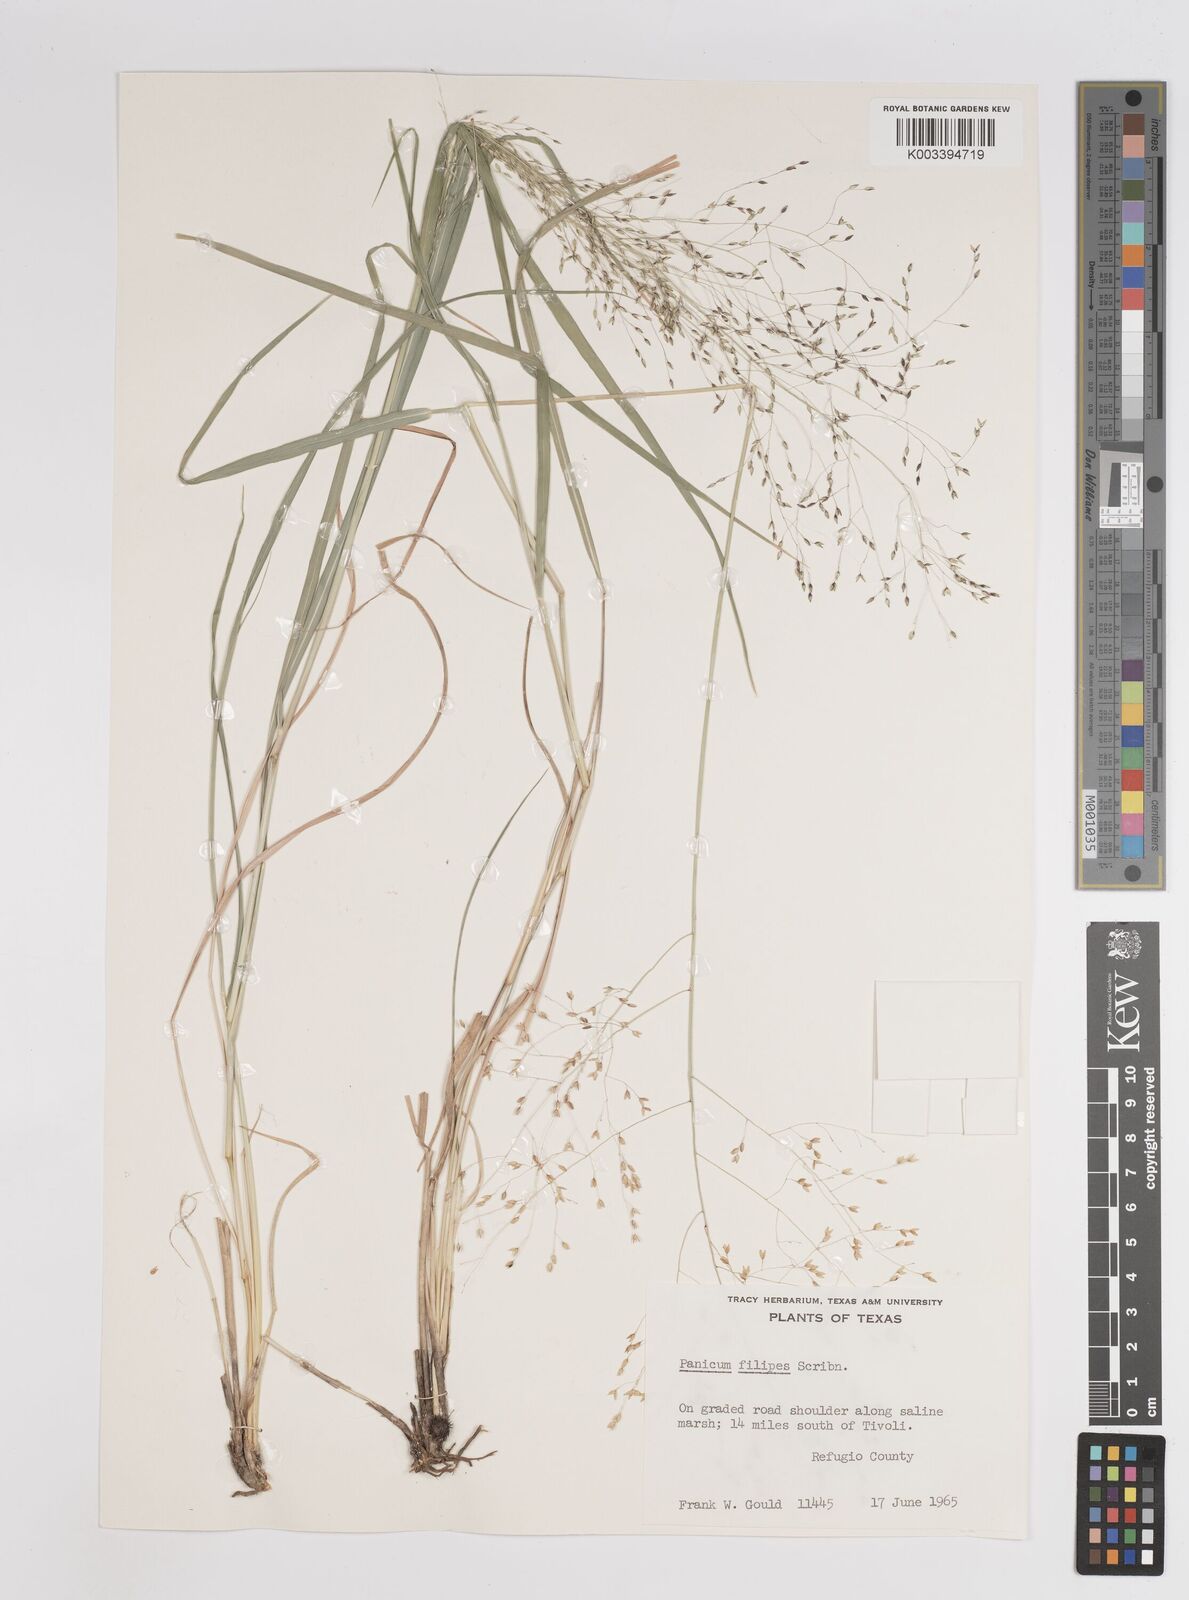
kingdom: Plantae
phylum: Tracheophyta
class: Liliopsida
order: Poales
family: Poaceae
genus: Panicum
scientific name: Panicum hallii
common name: Hall's witchgrass
